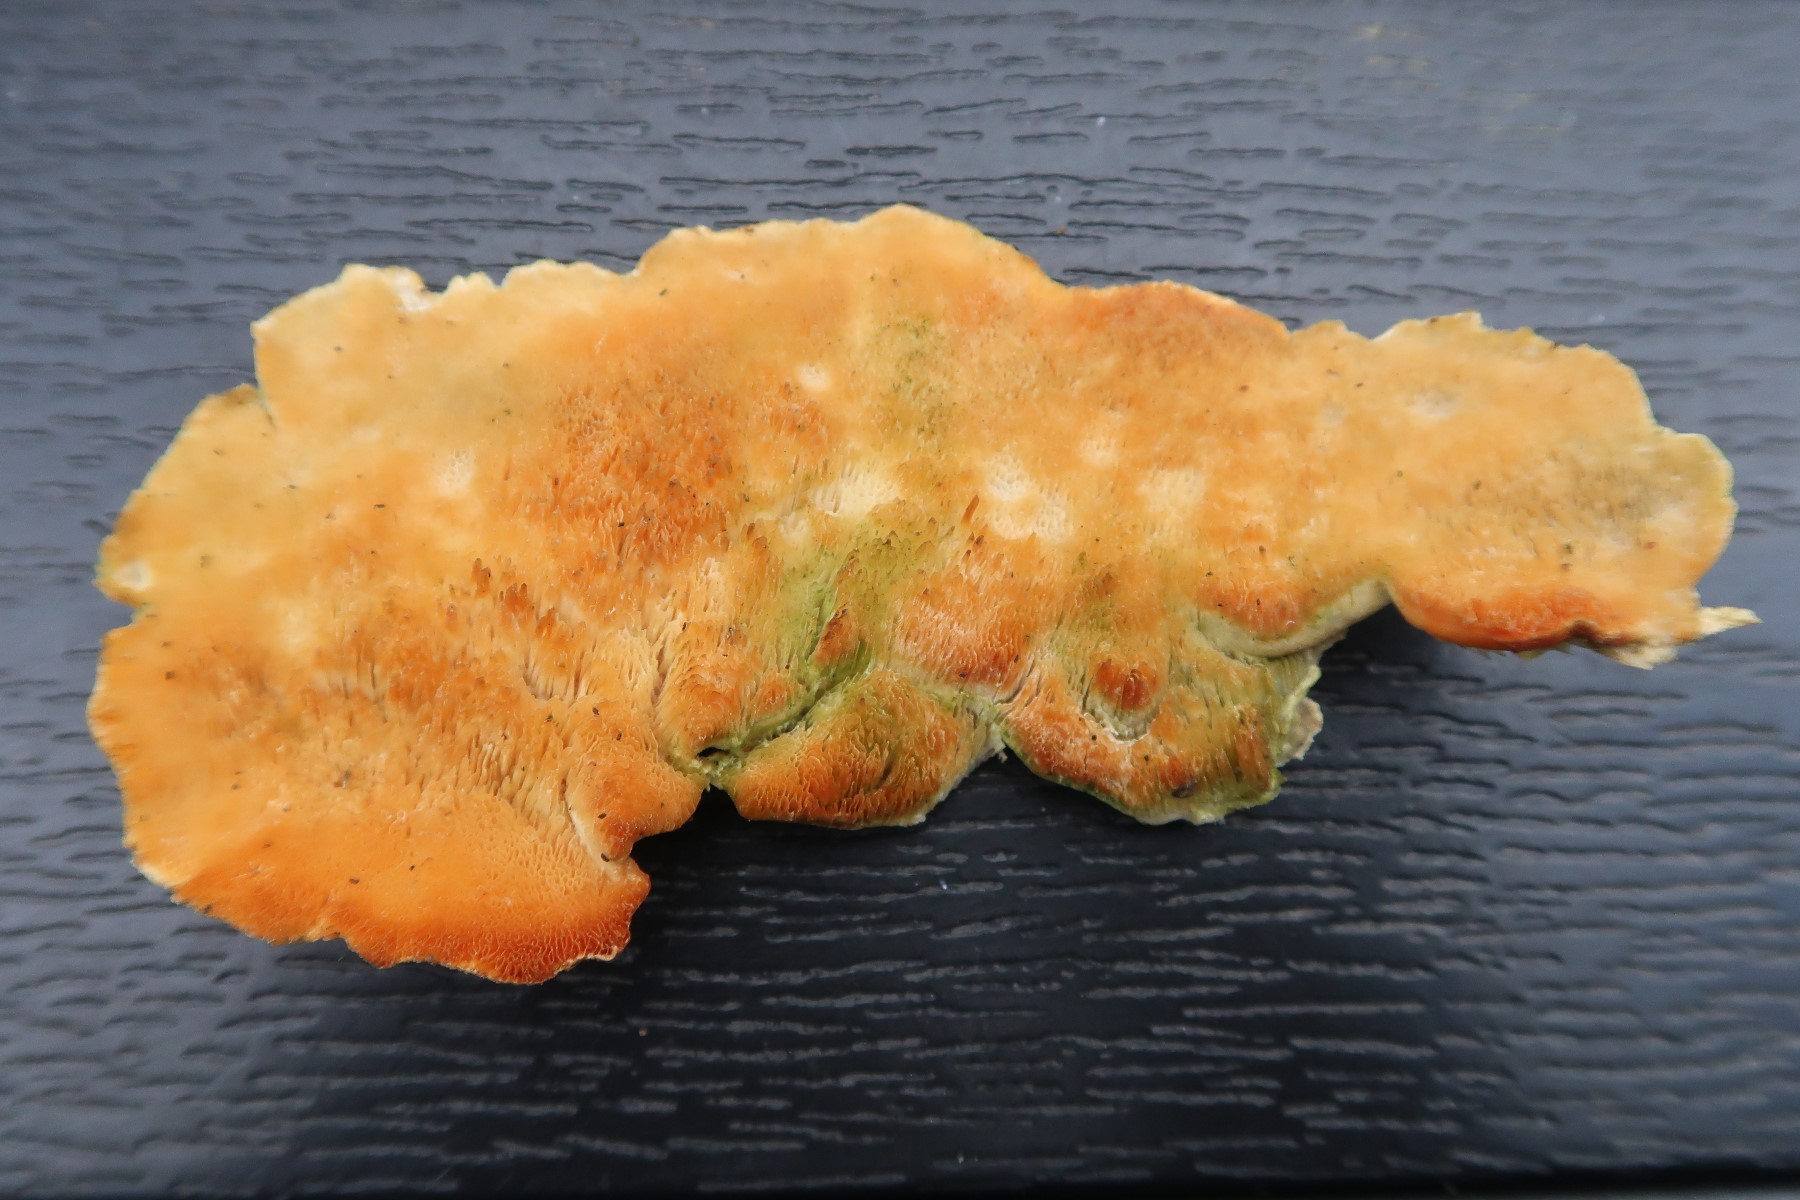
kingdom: Fungi
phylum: Basidiomycota
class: Agaricomycetes
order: Polyporales
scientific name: Polyporales
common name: poresvampordenen
